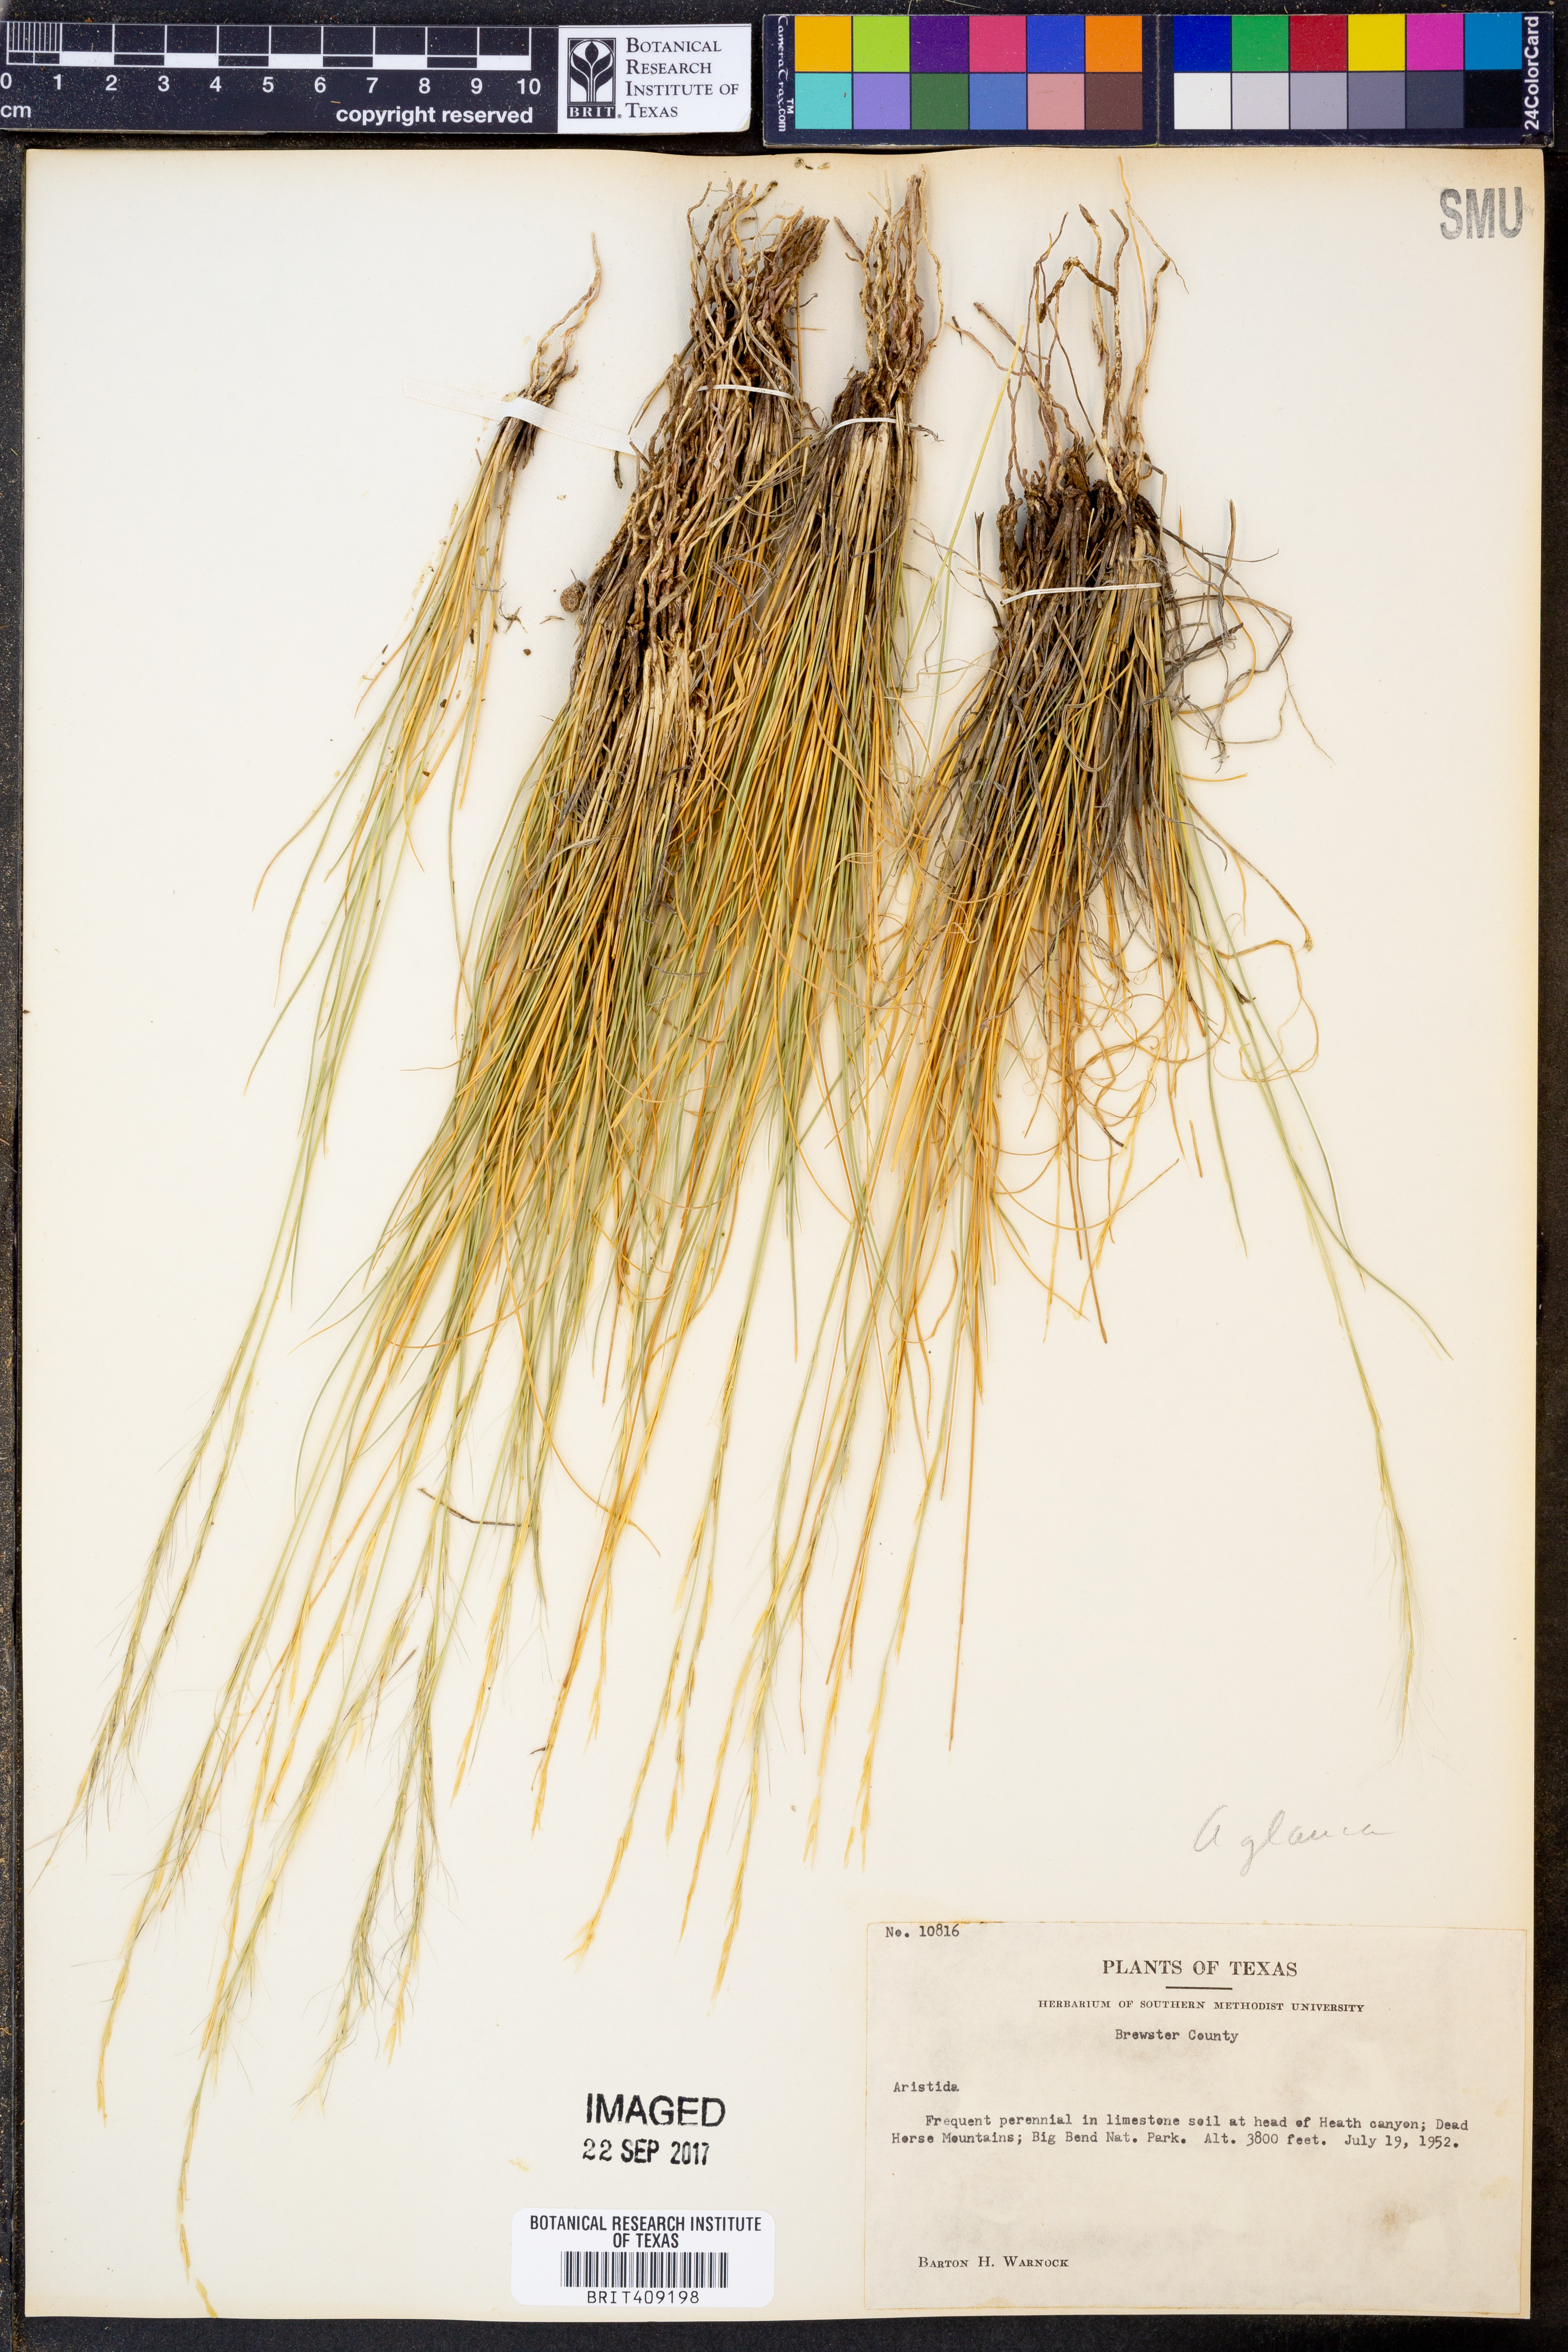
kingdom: Plantae
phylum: Tracheophyta
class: Liliopsida
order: Poales
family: Poaceae
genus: Aristida
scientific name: Aristida glauca
